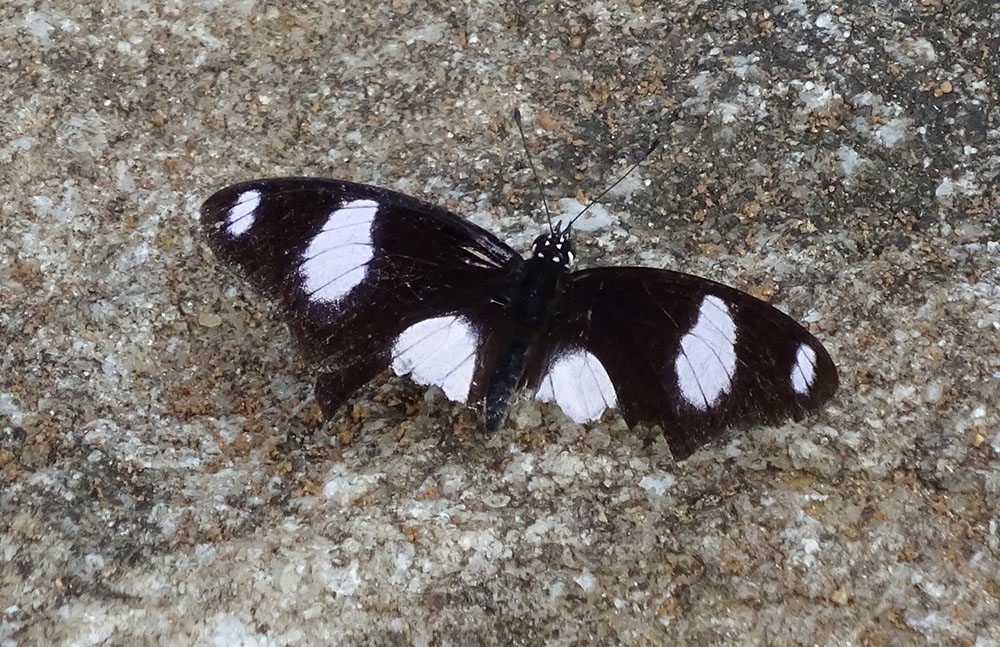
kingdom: Animalia
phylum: Arthropoda
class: Insecta
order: Lepidoptera
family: Nymphalidae
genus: Hypolimnas
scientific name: Hypolimnas misippus
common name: False plain tiger
